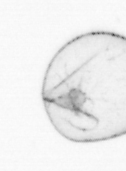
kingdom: Chromista
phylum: Myzozoa
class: Dinophyceae
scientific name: Dinophyceae
